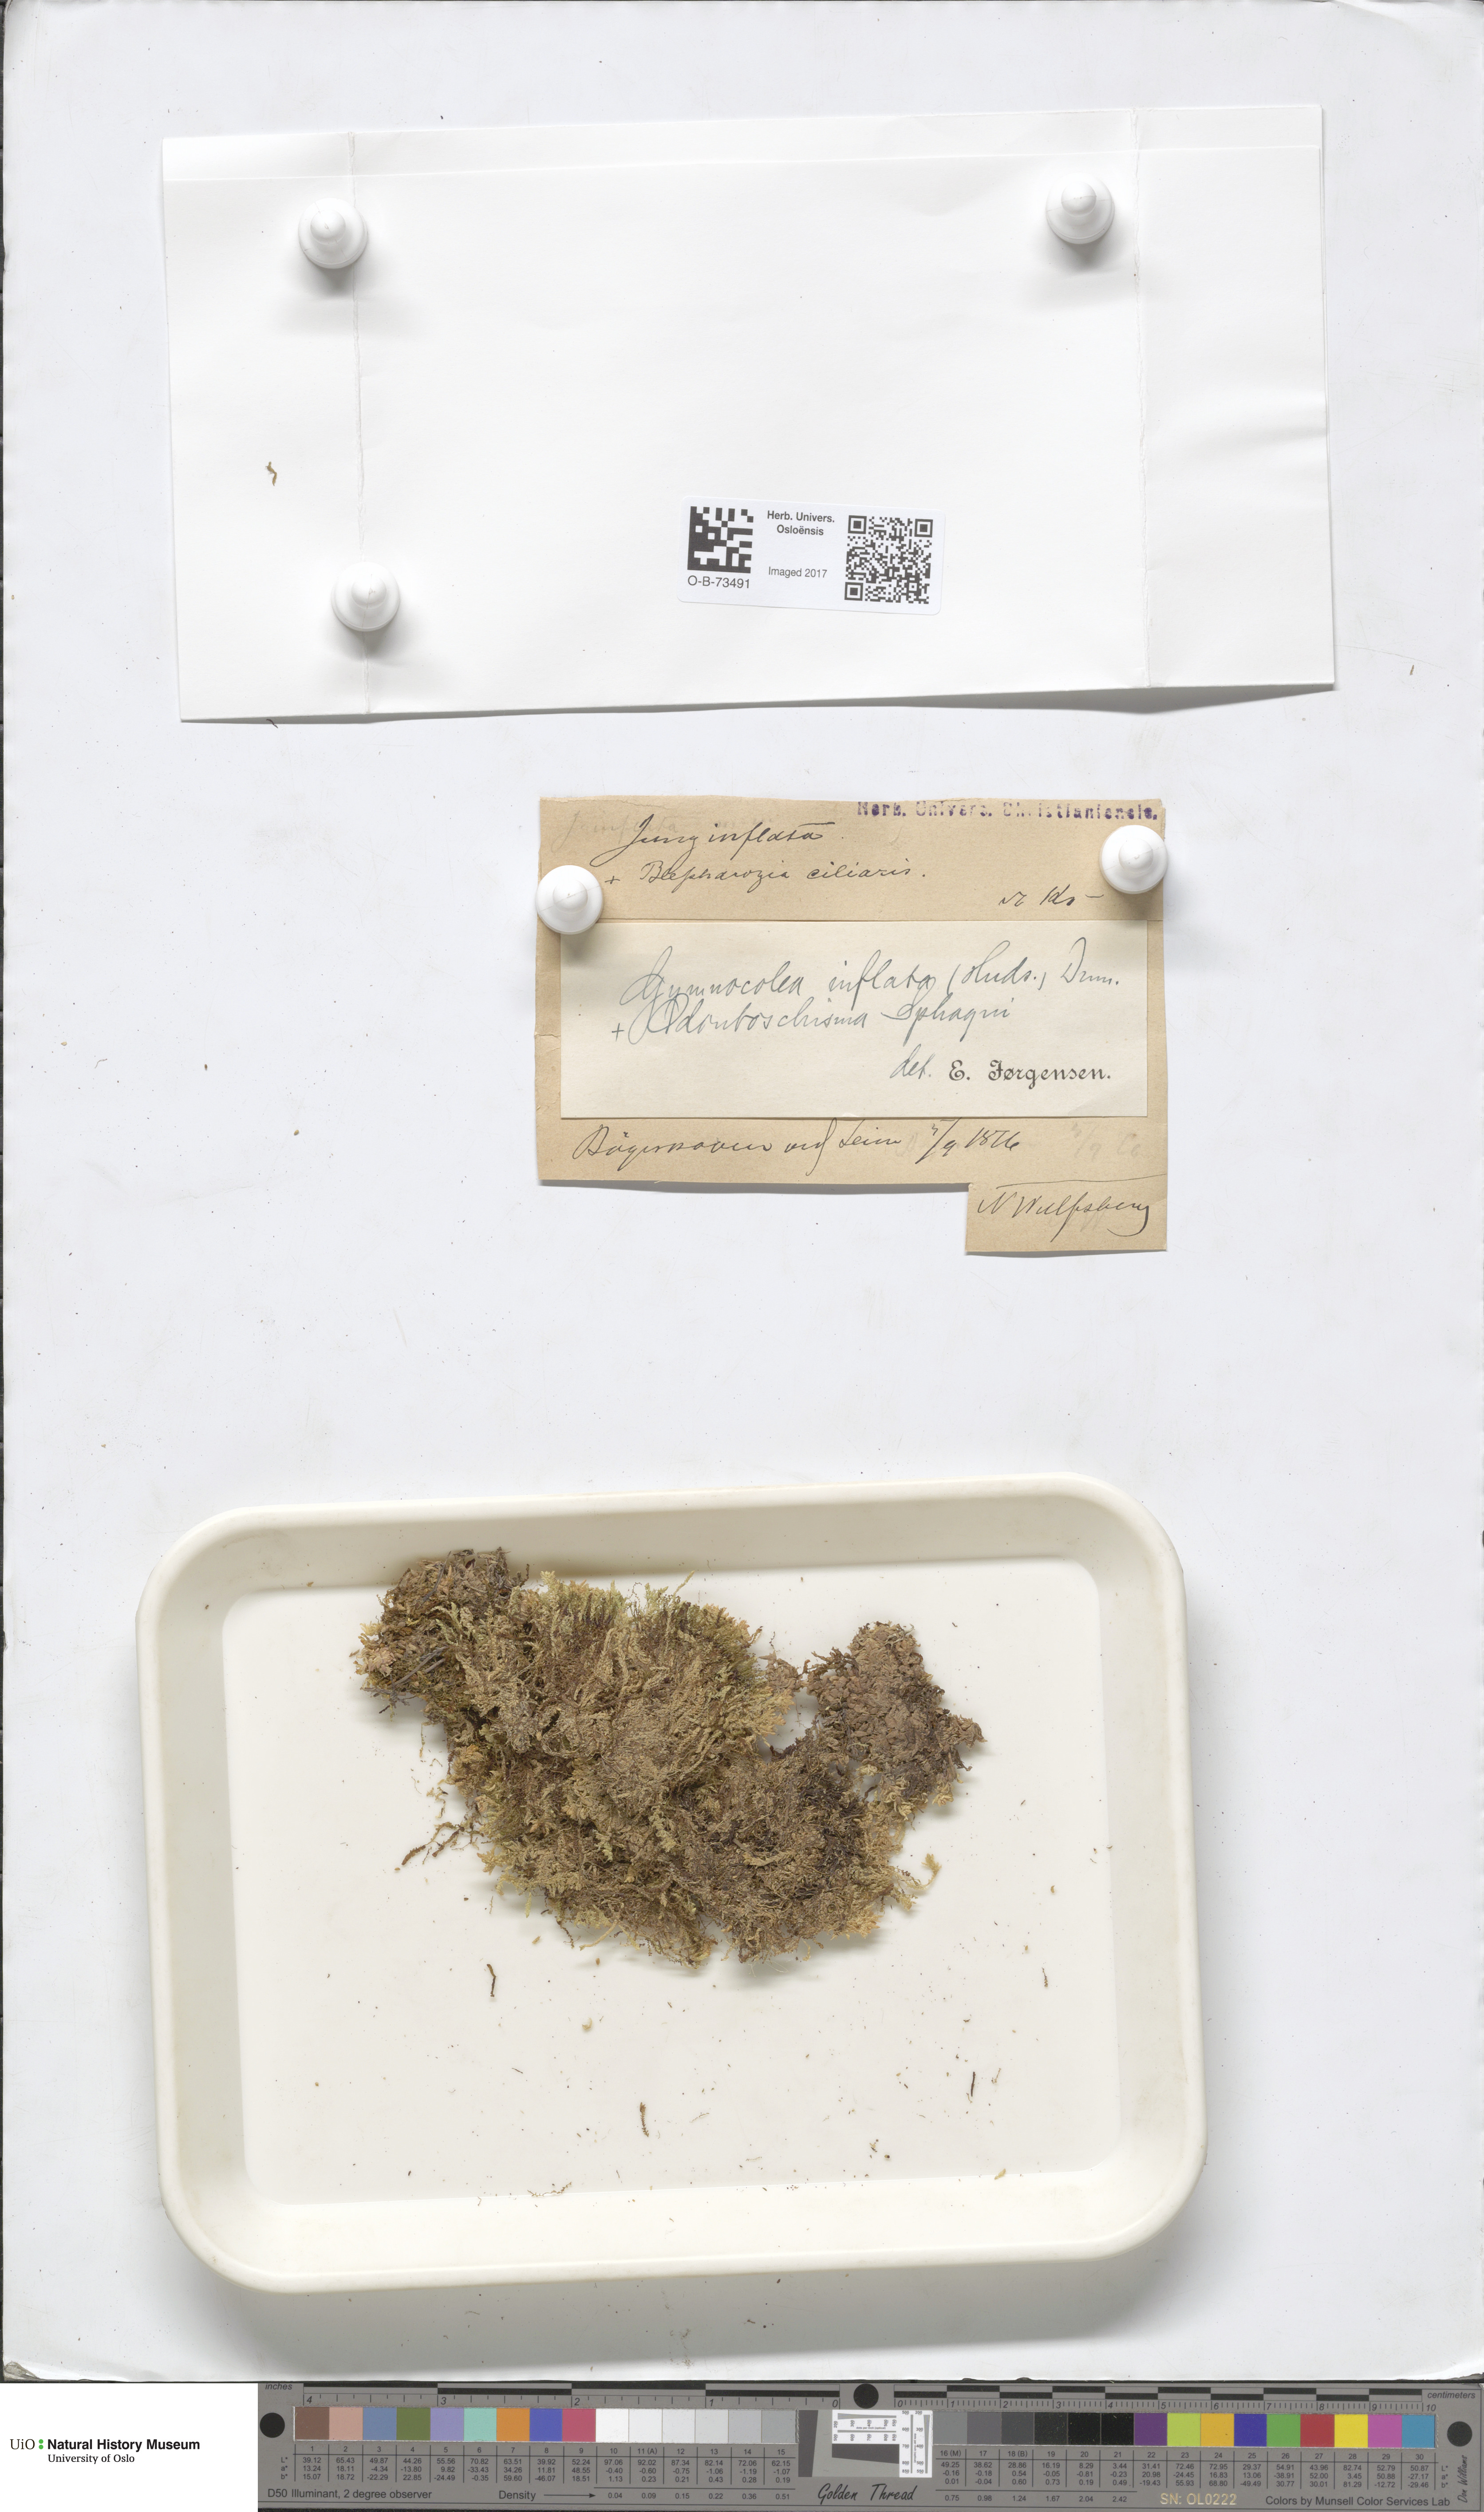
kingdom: Plantae
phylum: Marchantiophyta
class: Jungermanniopsida
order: Jungermanniales
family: Anastrophyllaceae
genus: Gymnocolea
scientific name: Gymnocolea inflata
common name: Inflated notchwort
